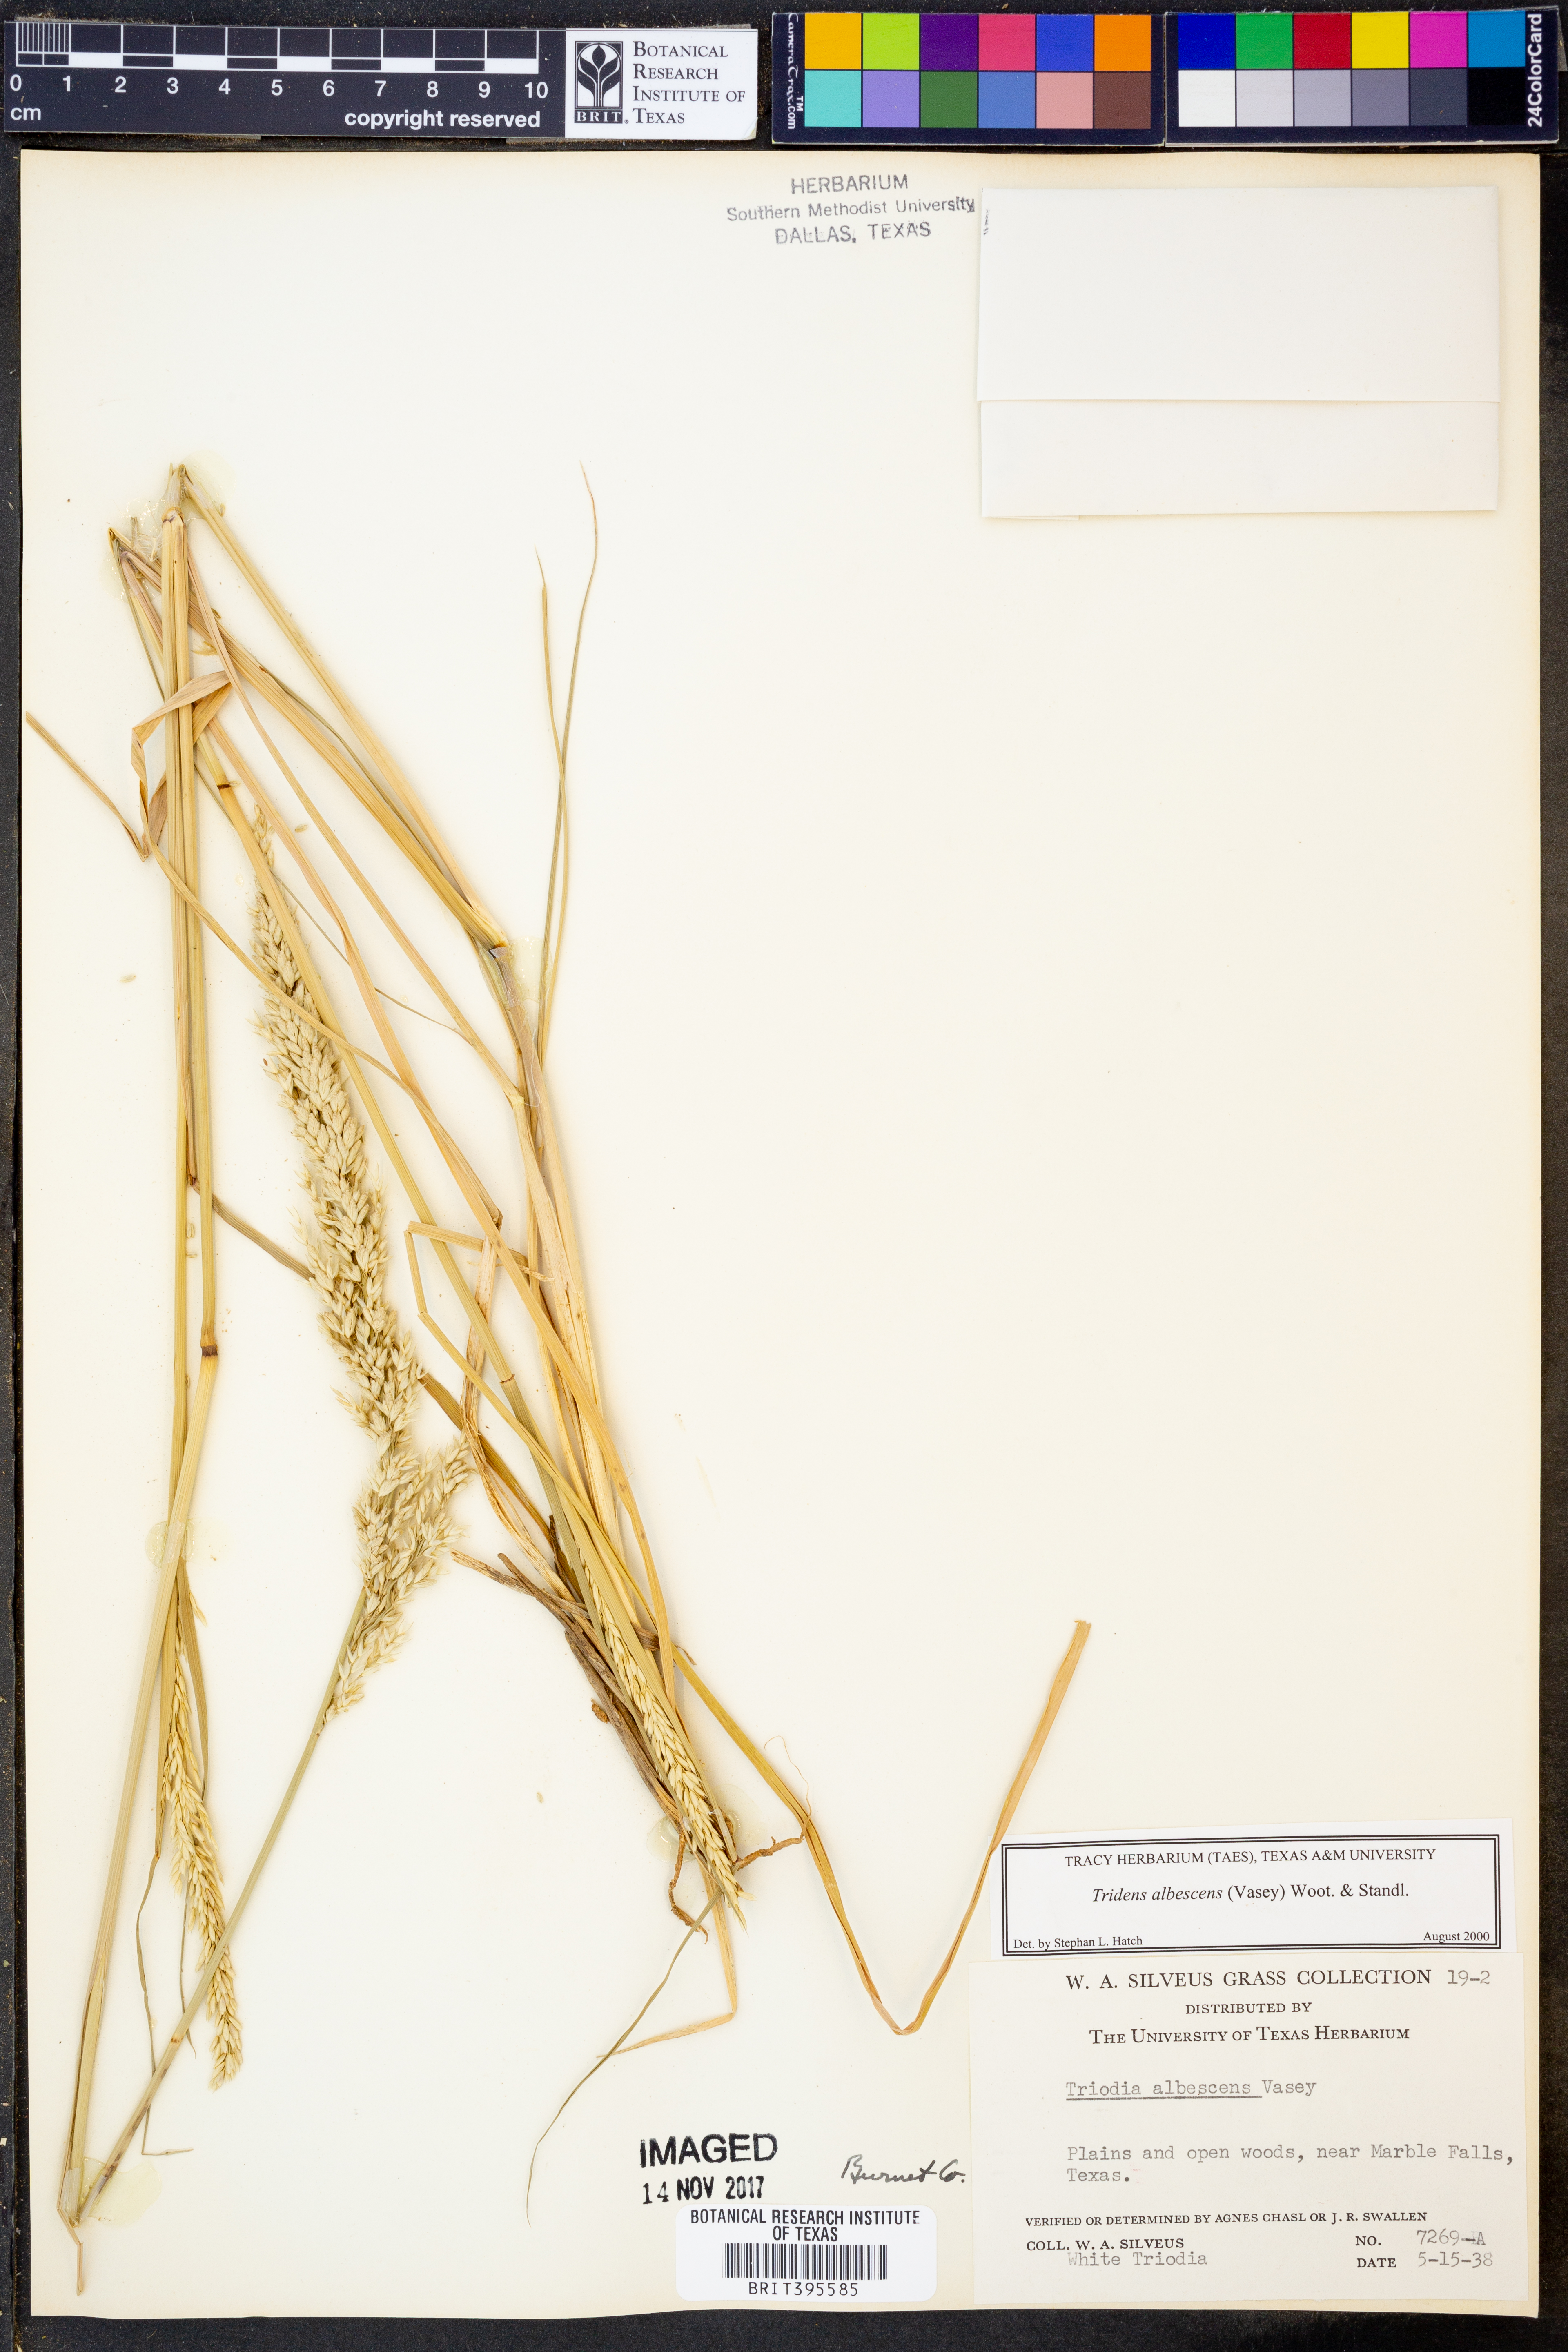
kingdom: Plantae
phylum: Tracheophyta
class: Liliopsida
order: Poales
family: Poaceae
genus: Tridens
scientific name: Tridens albescens
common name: White tridens
